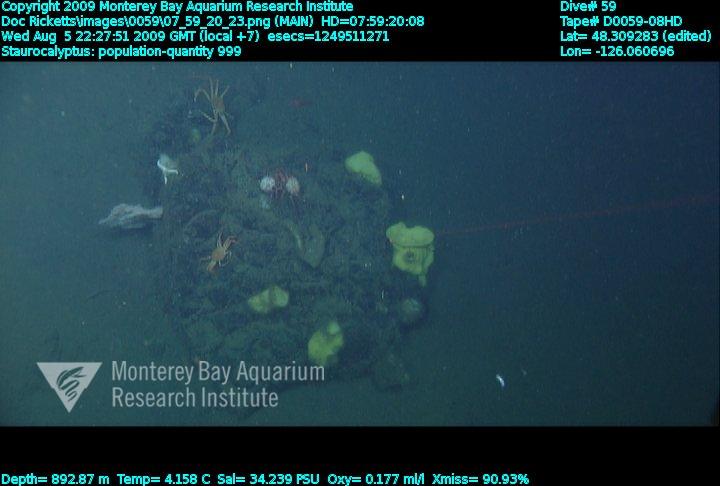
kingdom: Animalia
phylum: Porifera
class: Hexactinellida
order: Lyssacinosida
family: Rossellidae
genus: Staurocalyptus
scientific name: Staurocalyptus
